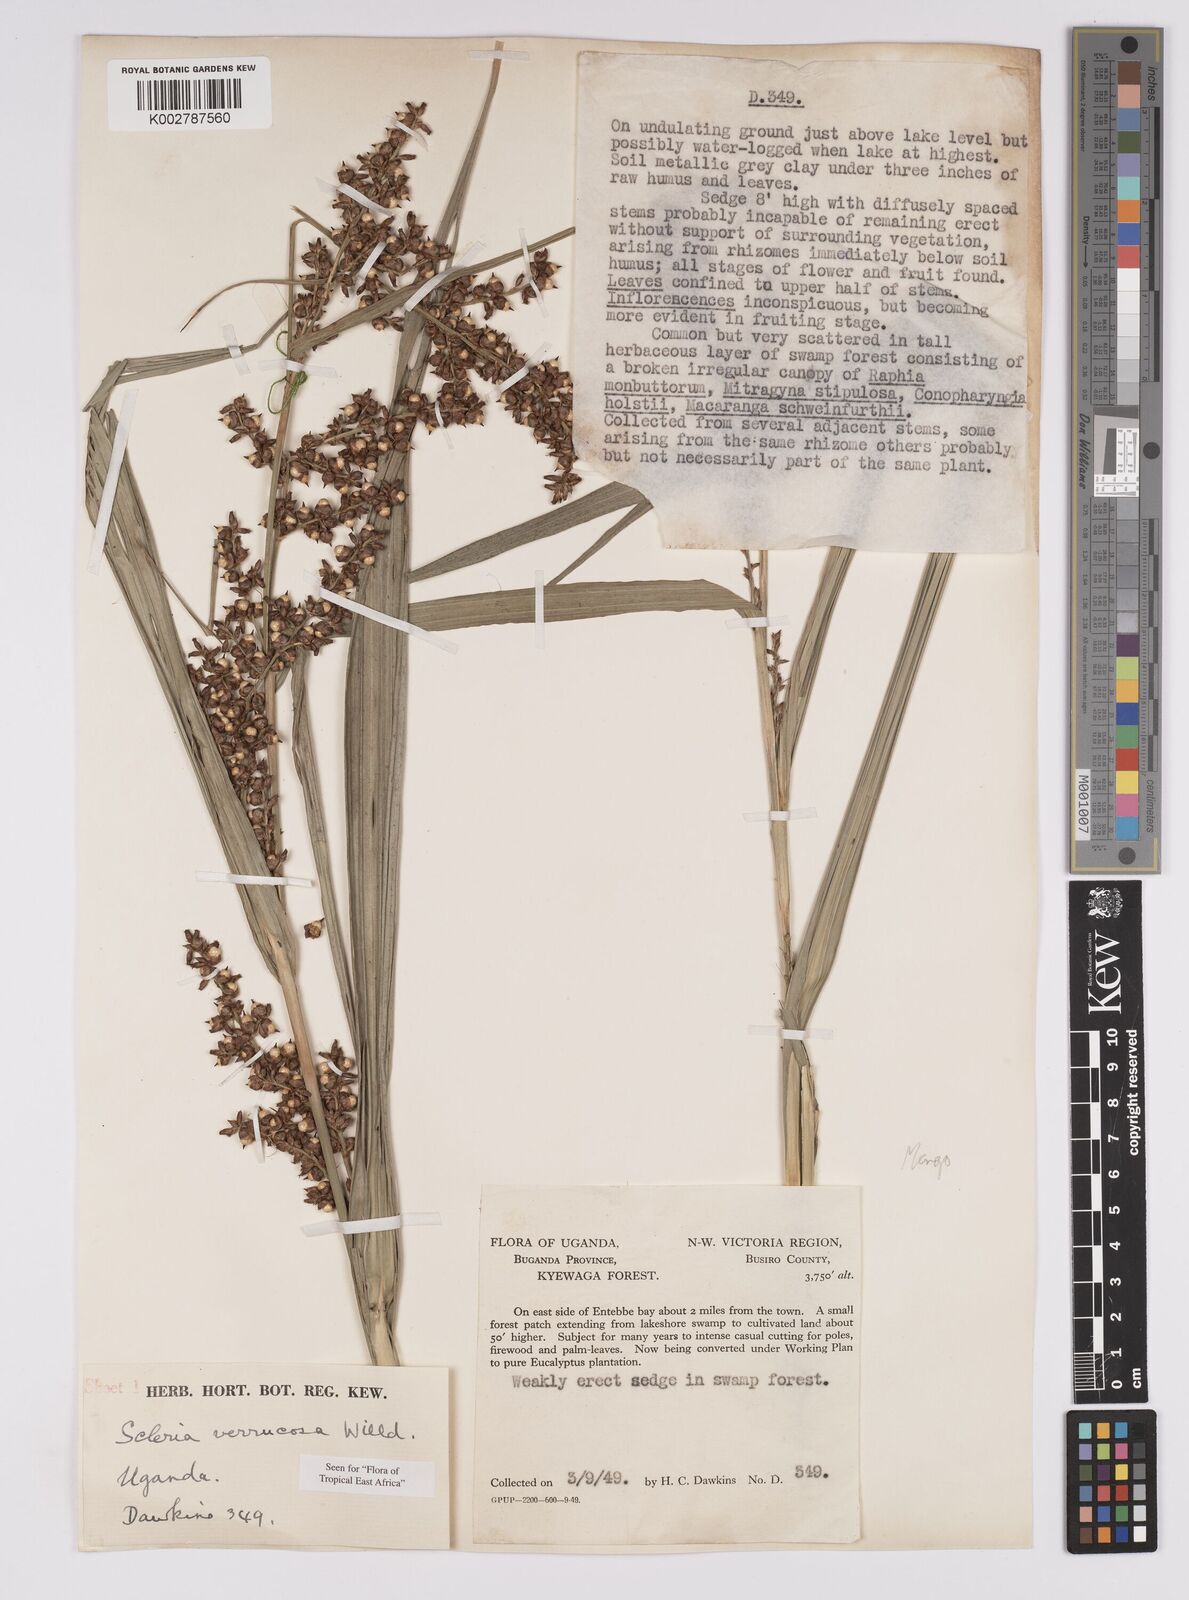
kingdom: Plantae
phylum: Tracheophyta
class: Liliopsida
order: Poales
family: Cyperaceae
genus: Scleria
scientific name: Scleria verrucosa
